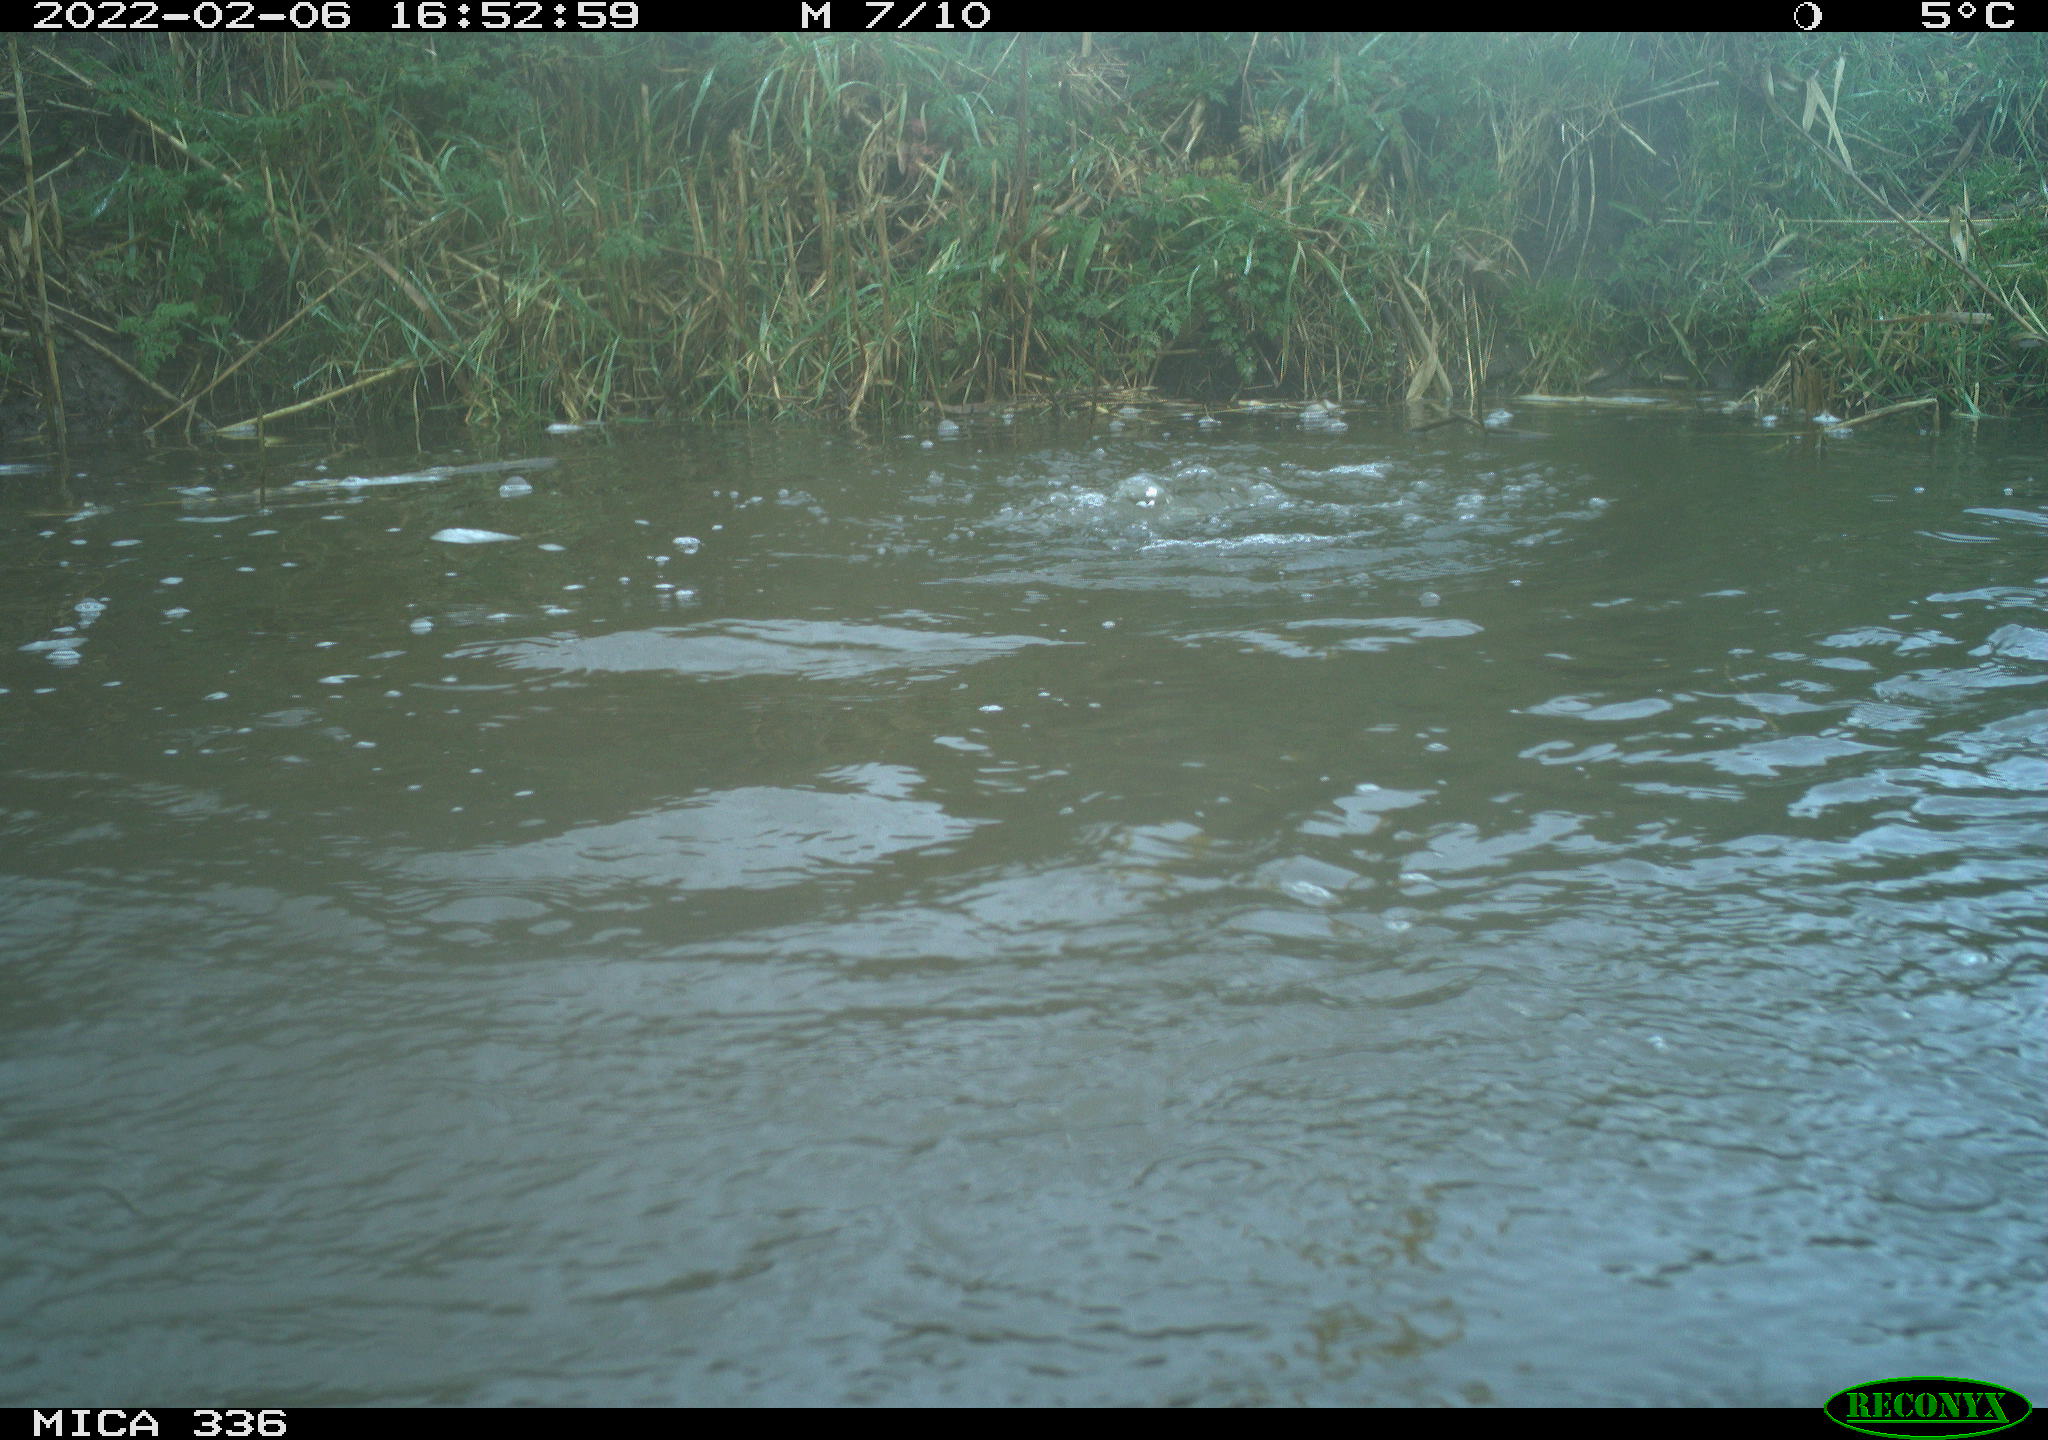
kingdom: Animalia
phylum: Chordata
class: Aves
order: Suliformes
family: Phalacrocoracidae
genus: Phalacrocorax
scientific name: Phalacrocorax carbo
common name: Great cormorant
